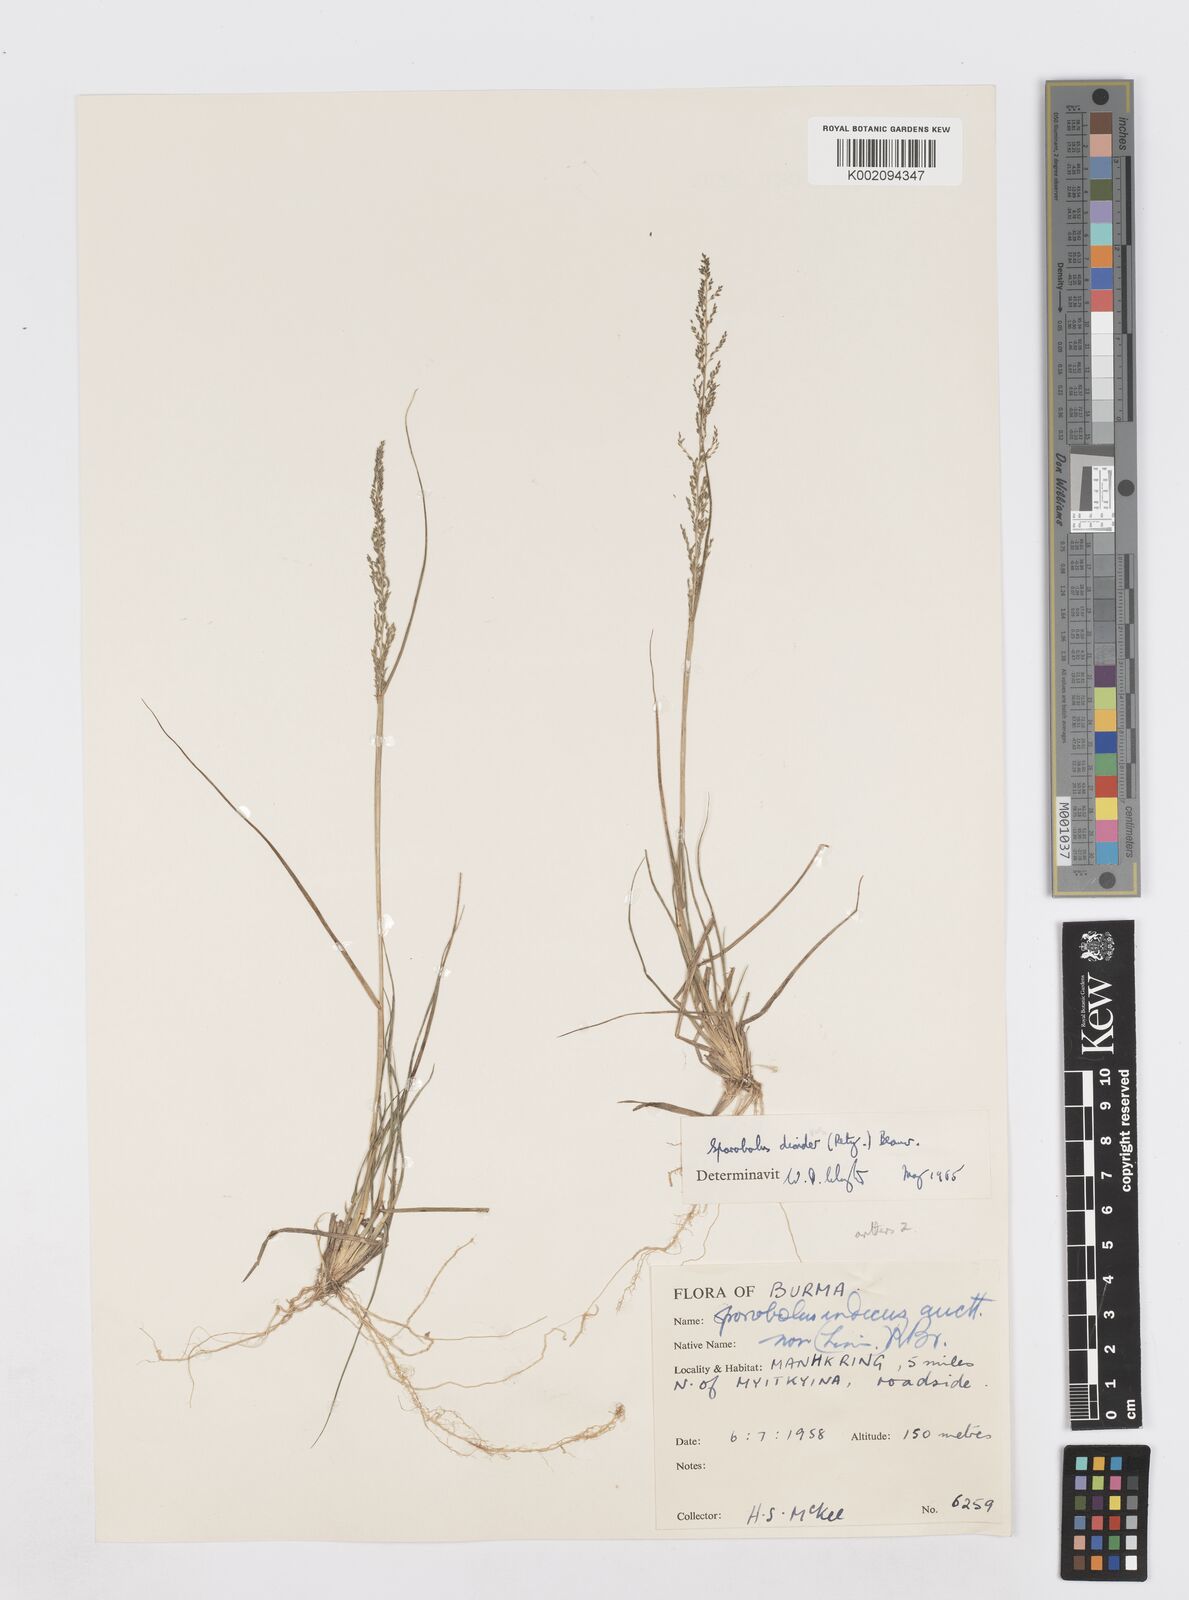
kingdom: Plantae
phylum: Tracheophyta
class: Liliopsida
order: Poales
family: Poaceae
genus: Sporobolus
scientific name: Sporobolus diandrus
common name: Tussock dropseed
